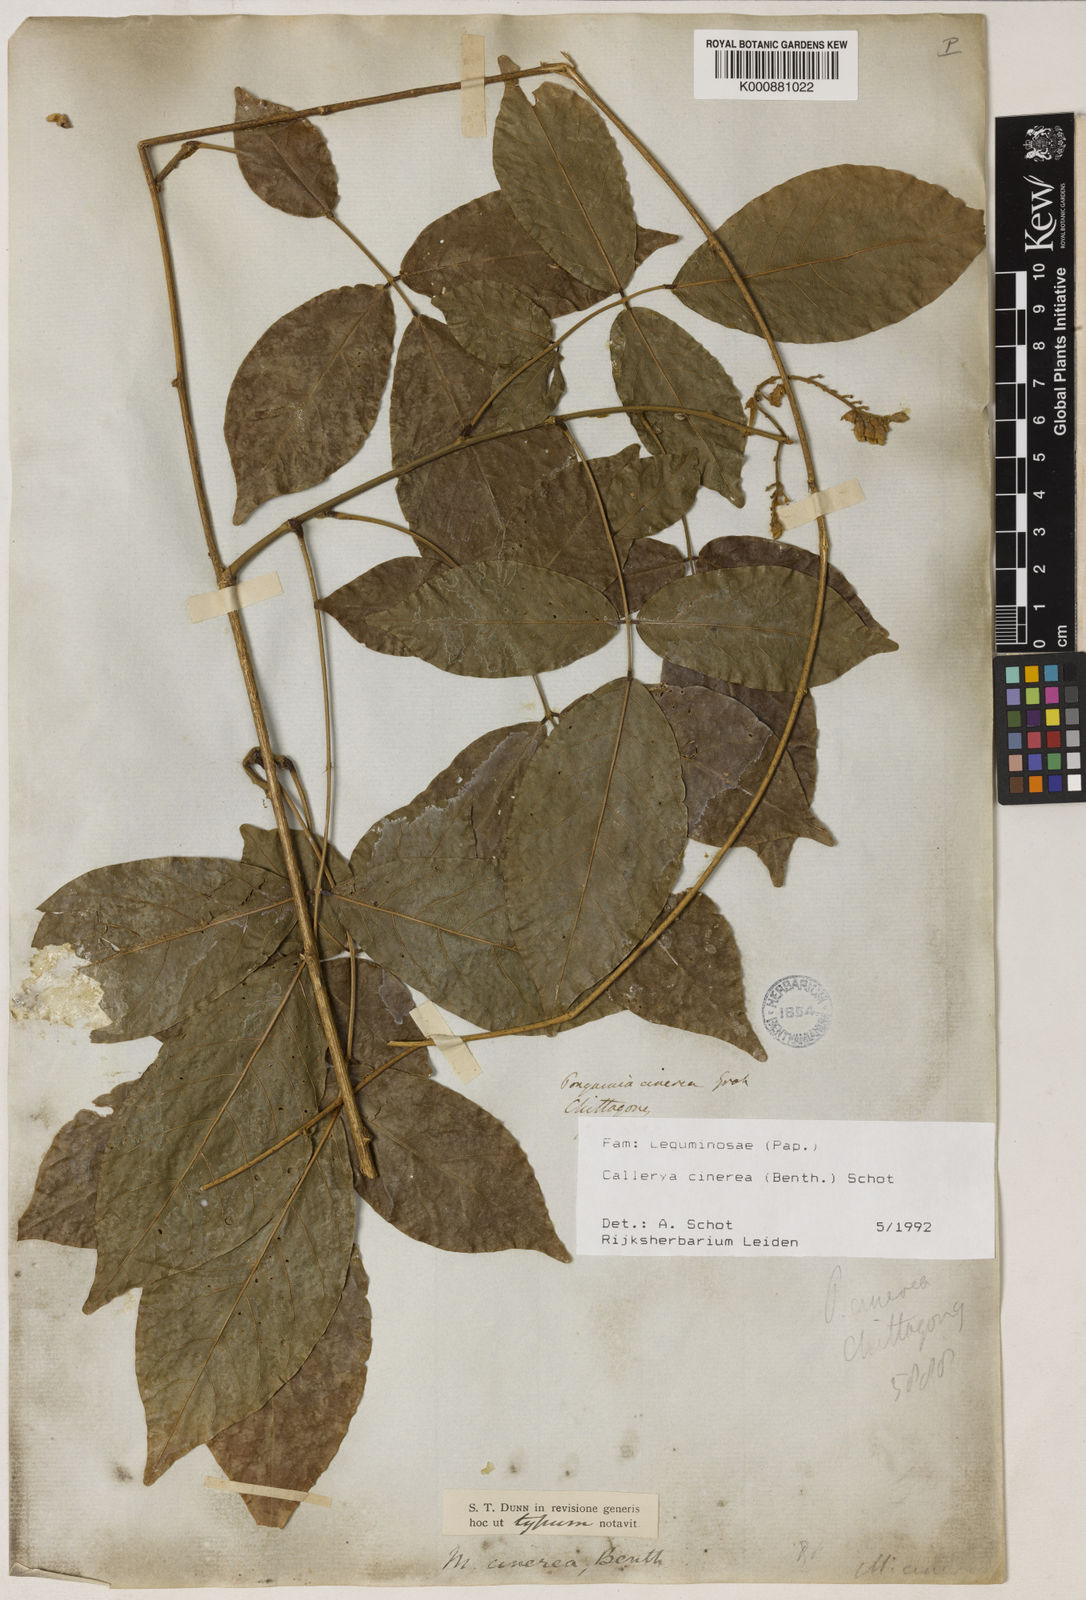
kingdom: Plantae
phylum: Tracheophyta
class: Magnoliopsida
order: Fabales
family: Fabaceae
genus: Callerya
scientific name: Callerya cinerea
